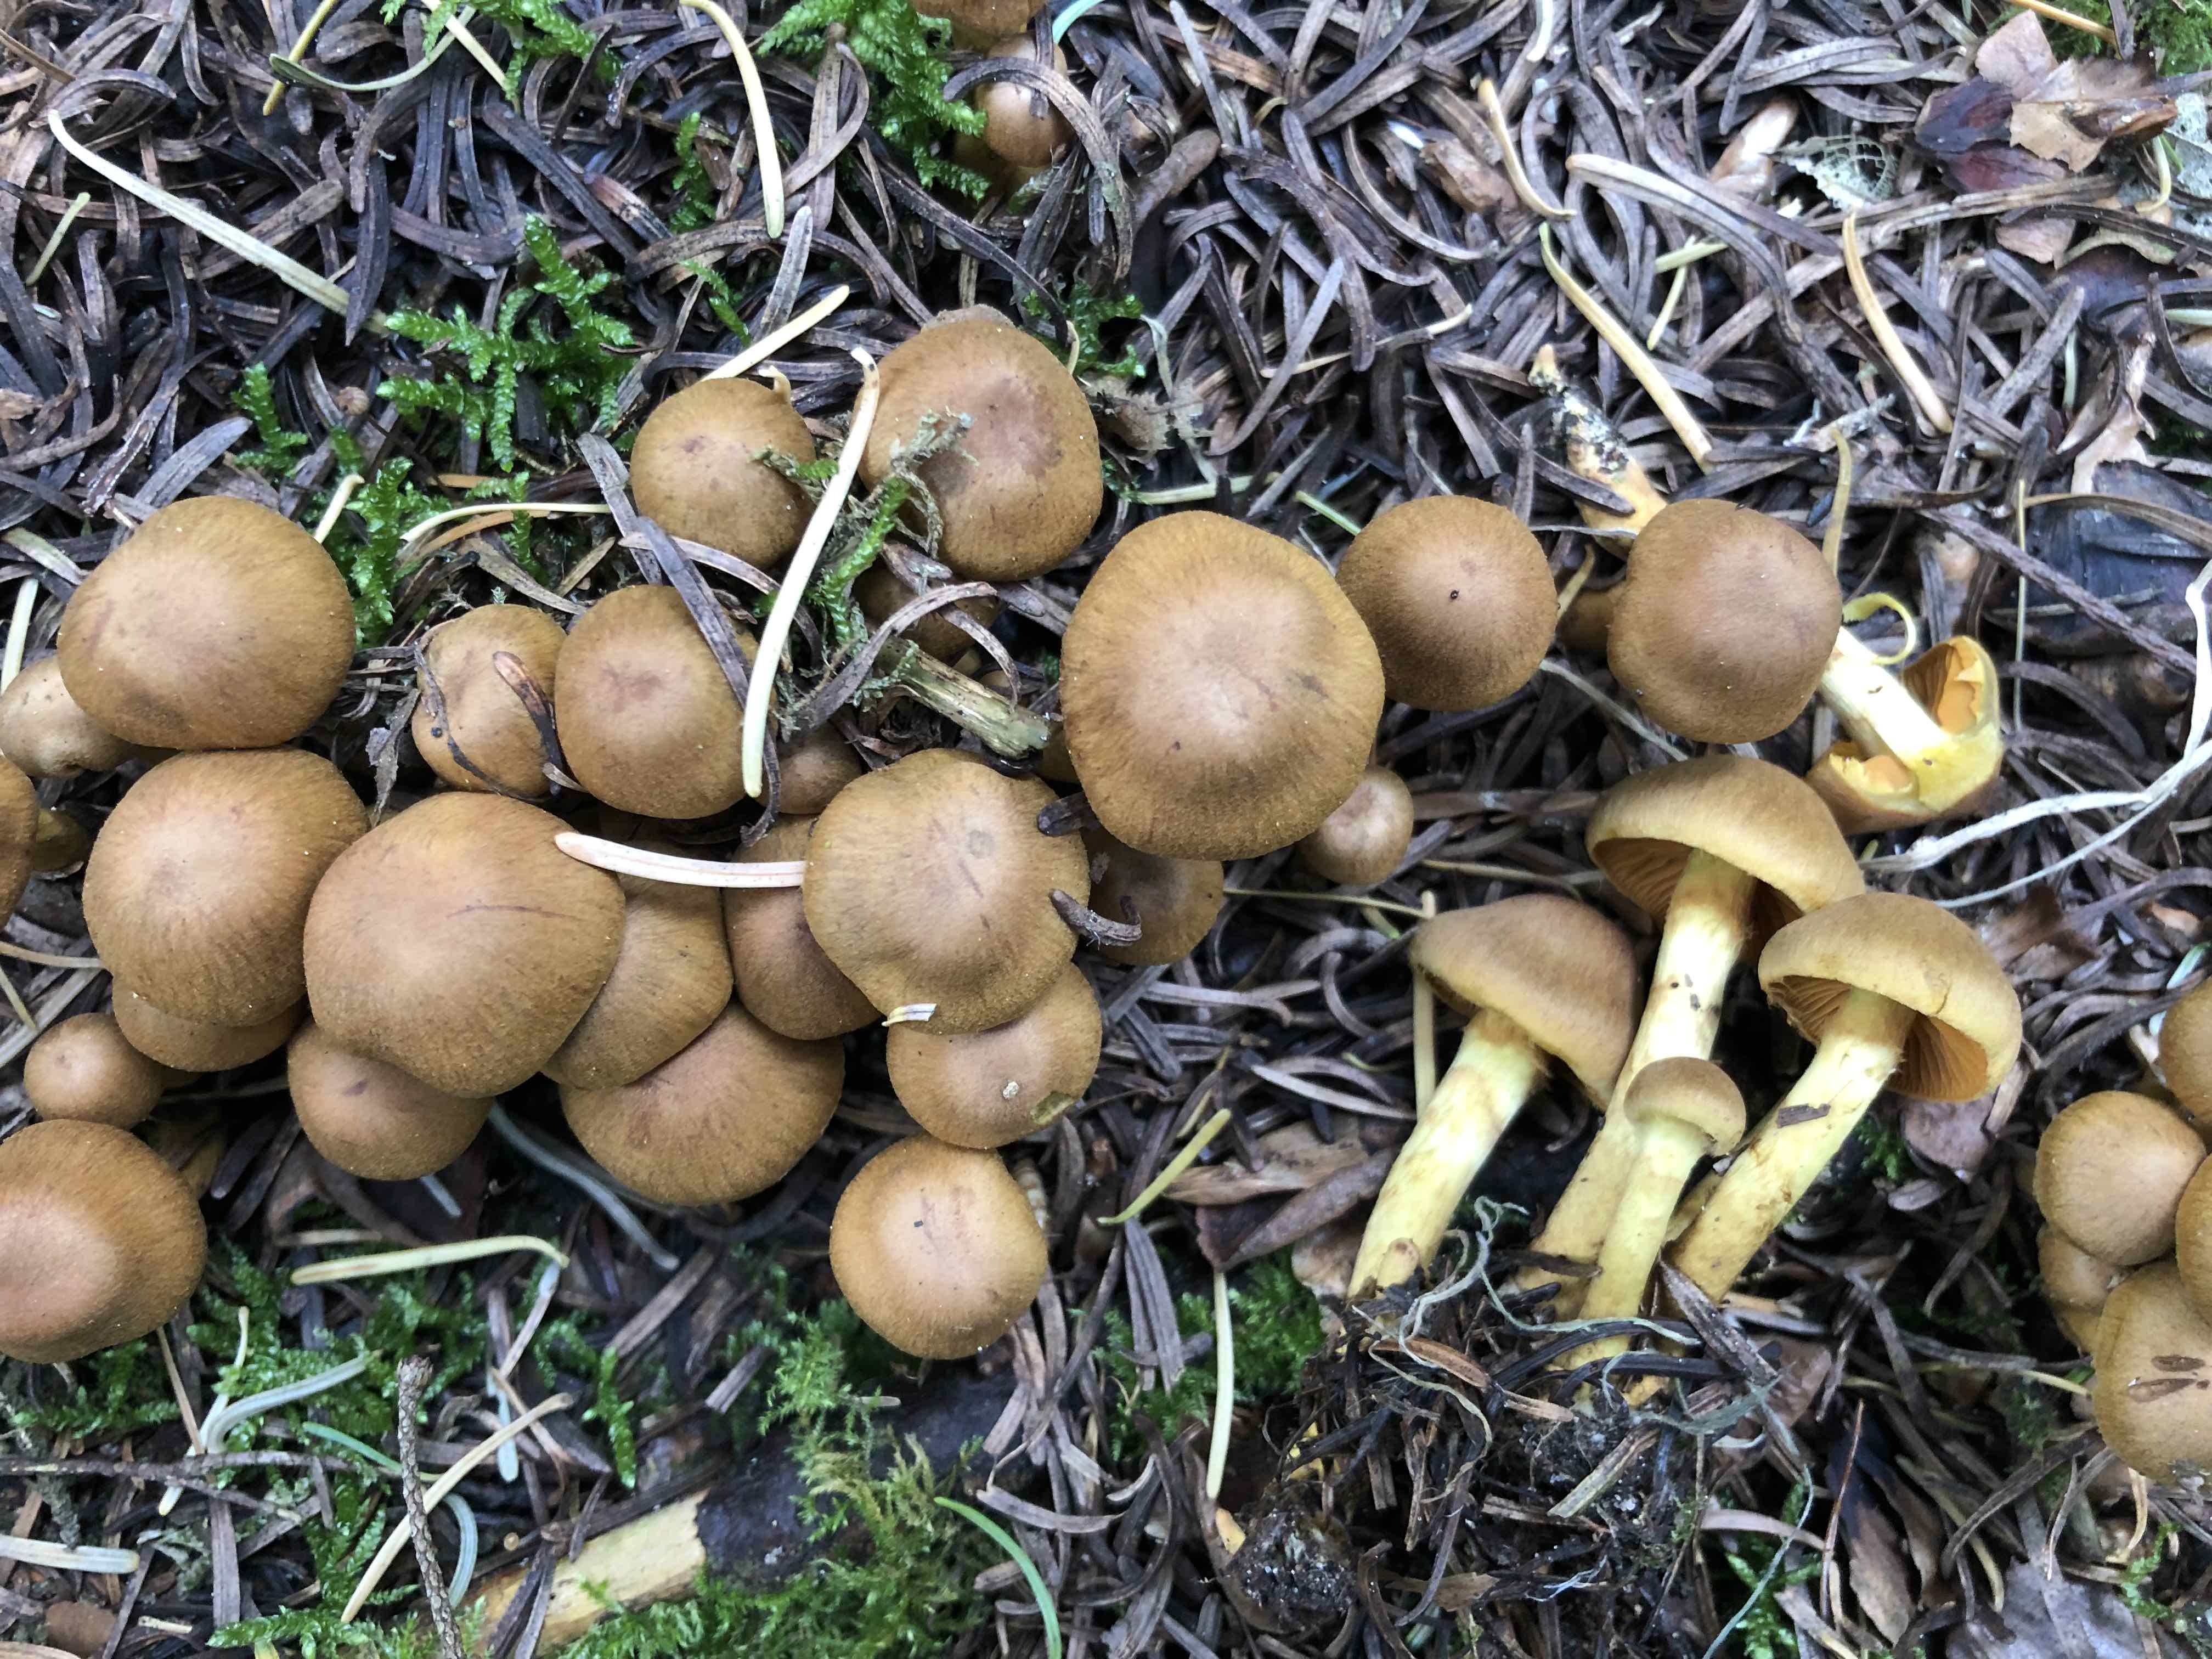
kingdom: Fungi
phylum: Basidiomycota
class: Agaricomycetes
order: Agaricales
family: Cortinariaceae
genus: Cortinarius
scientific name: Cortinarius
